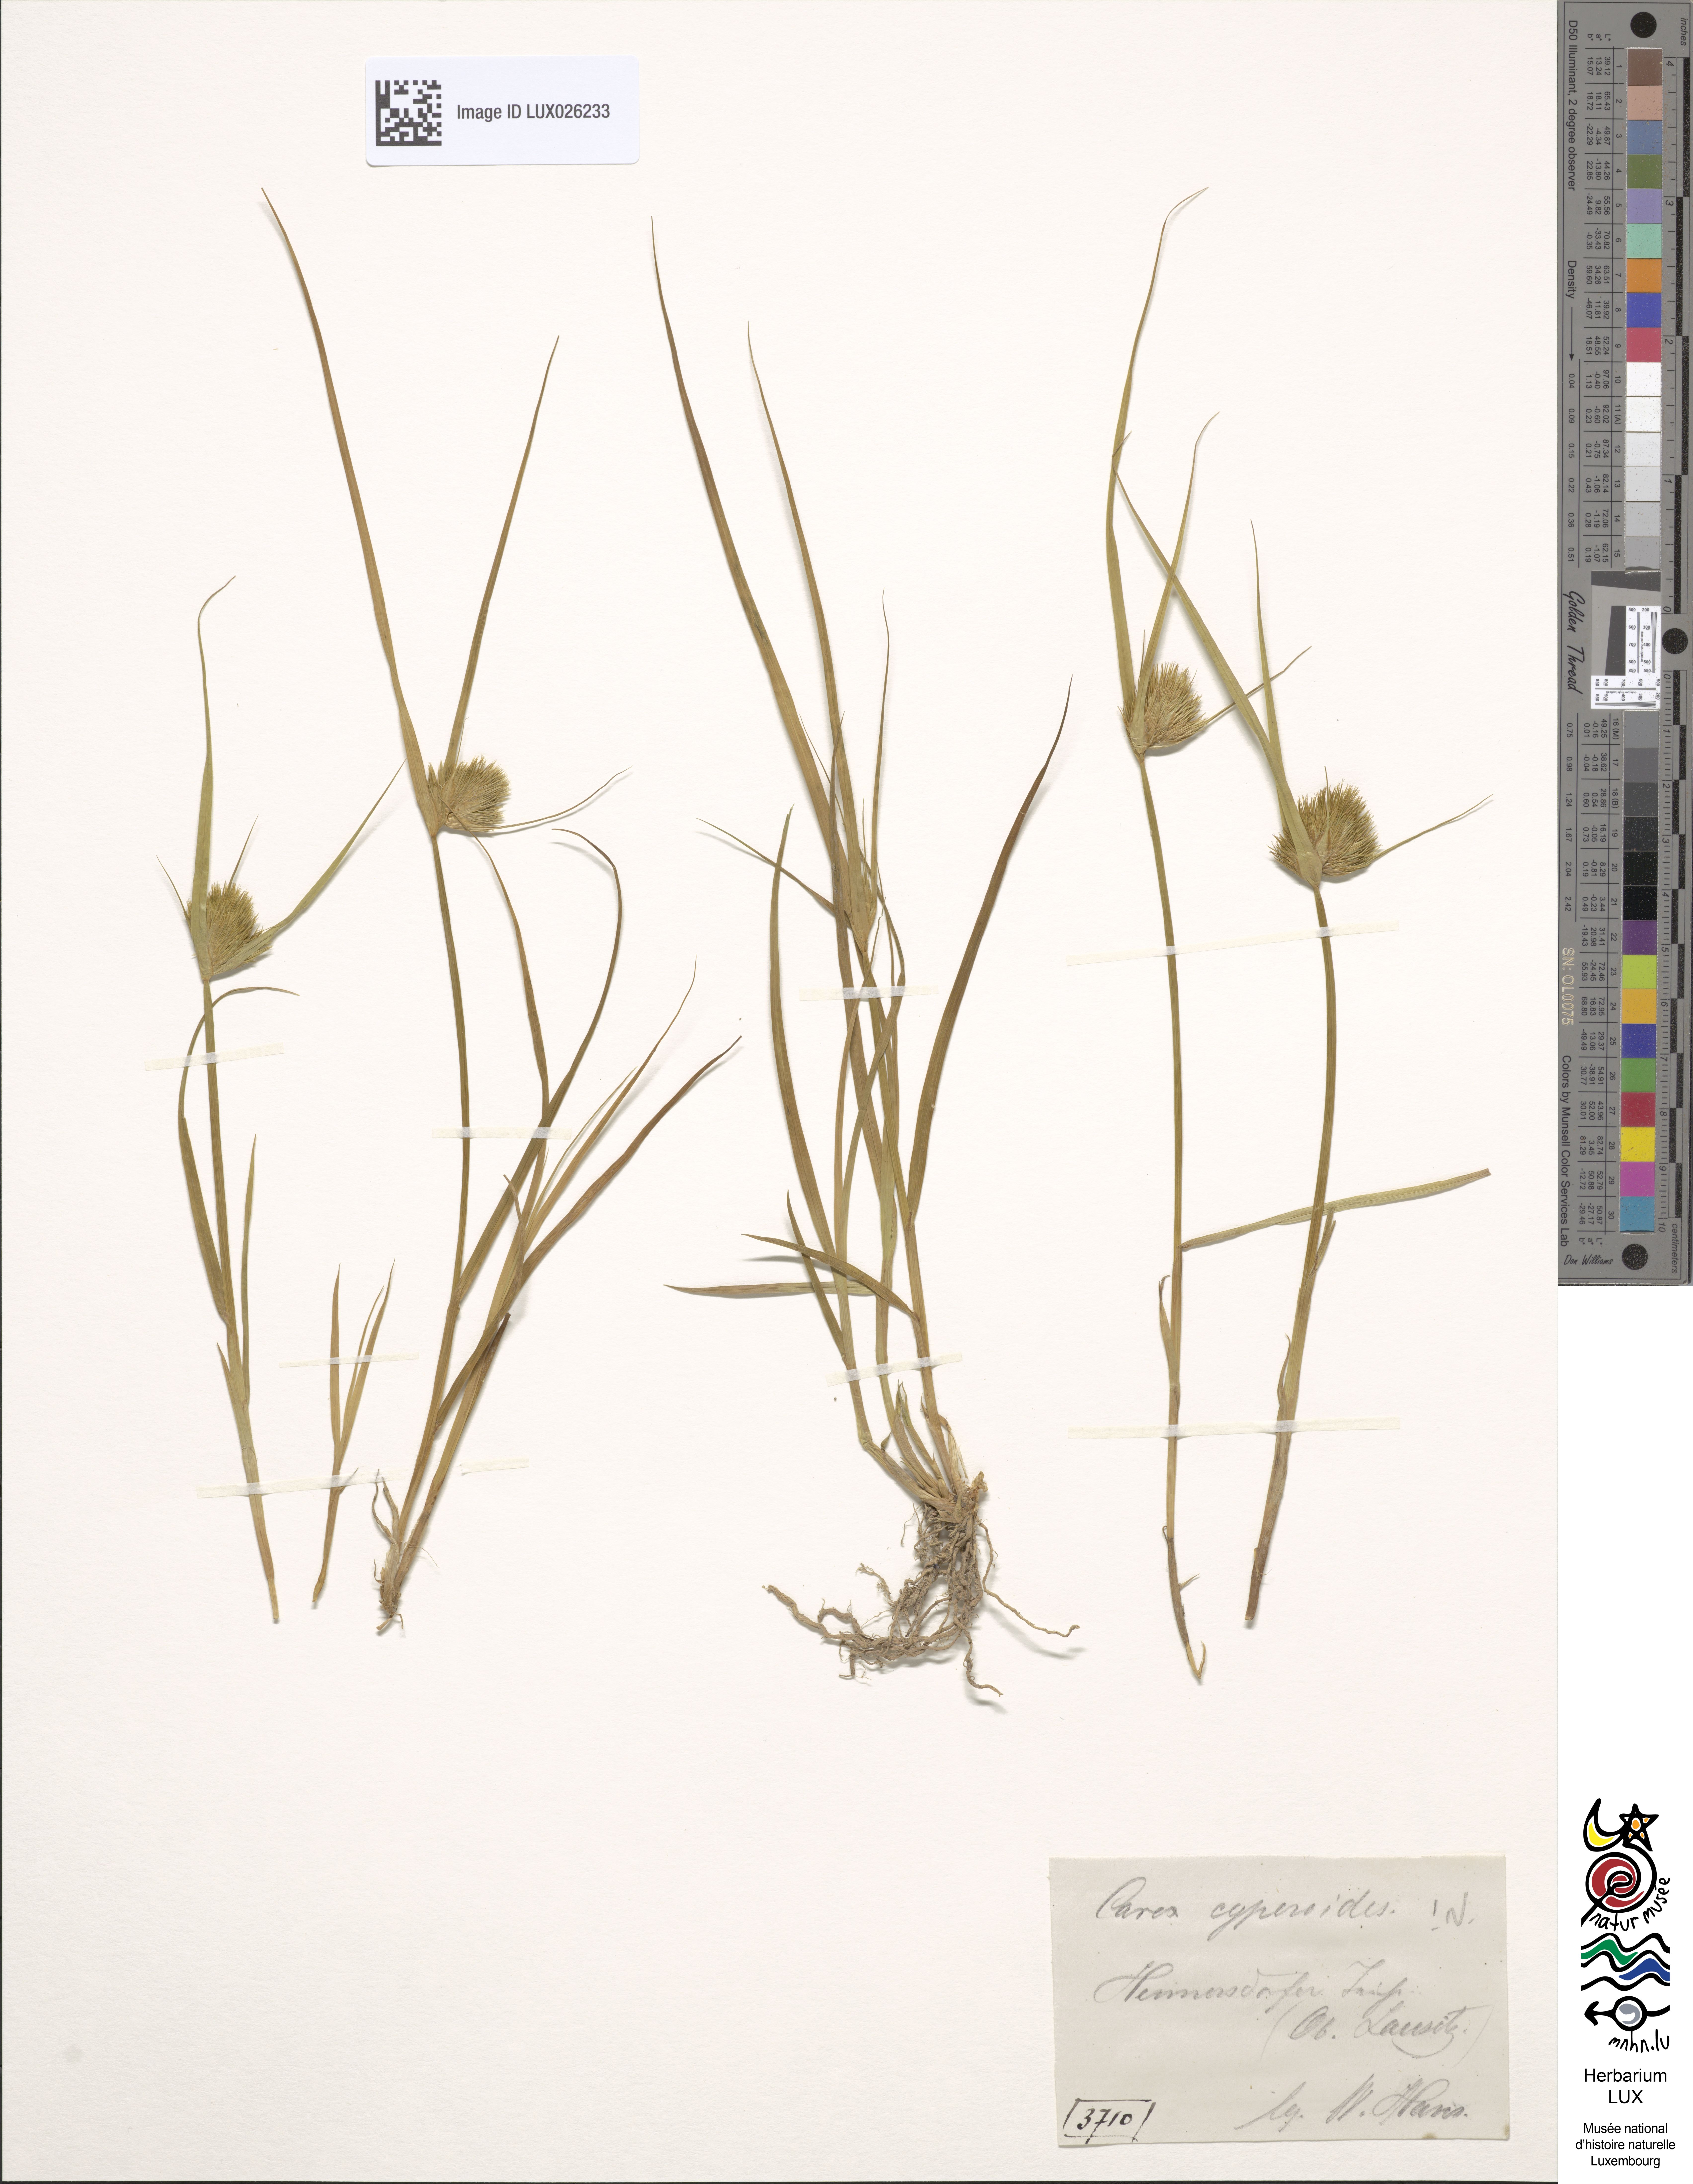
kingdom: Plantae
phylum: Tracheophyta
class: Liliopsida
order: Poales
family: Cyperaceae
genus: Carex
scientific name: Carex bohemica
